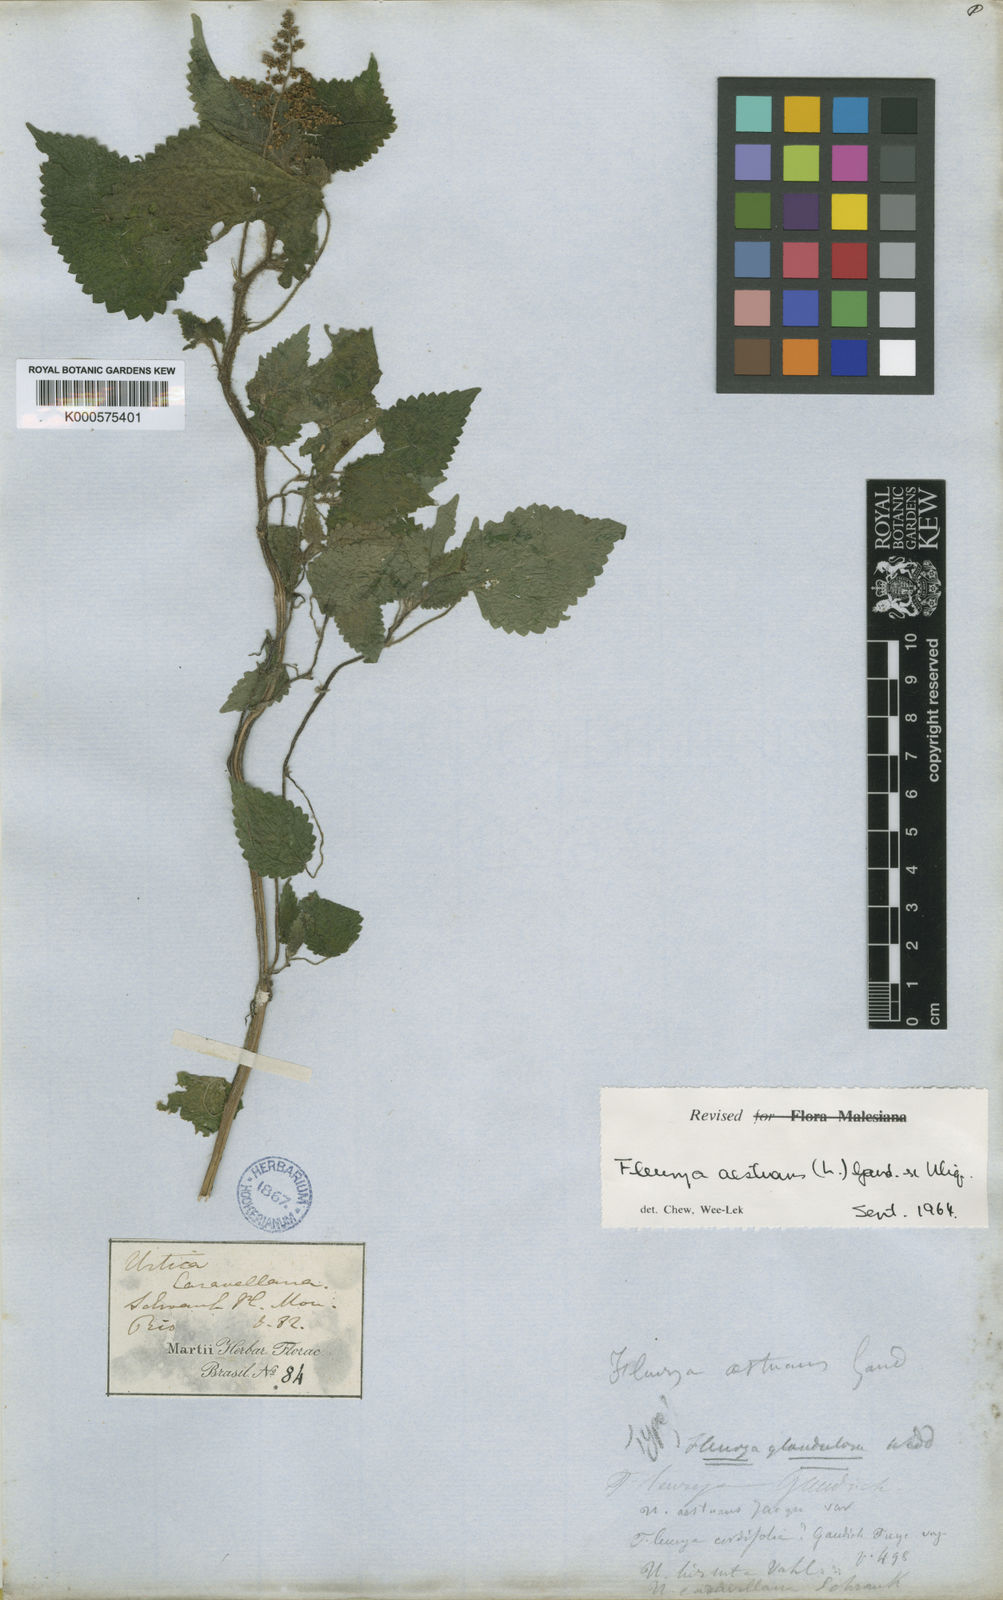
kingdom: Plantae
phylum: Tracheophyta
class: Magnoliopsida
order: Rosales
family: Urticaceae
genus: Laportea
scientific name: Laportea aestuans
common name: West indian woodnettle
